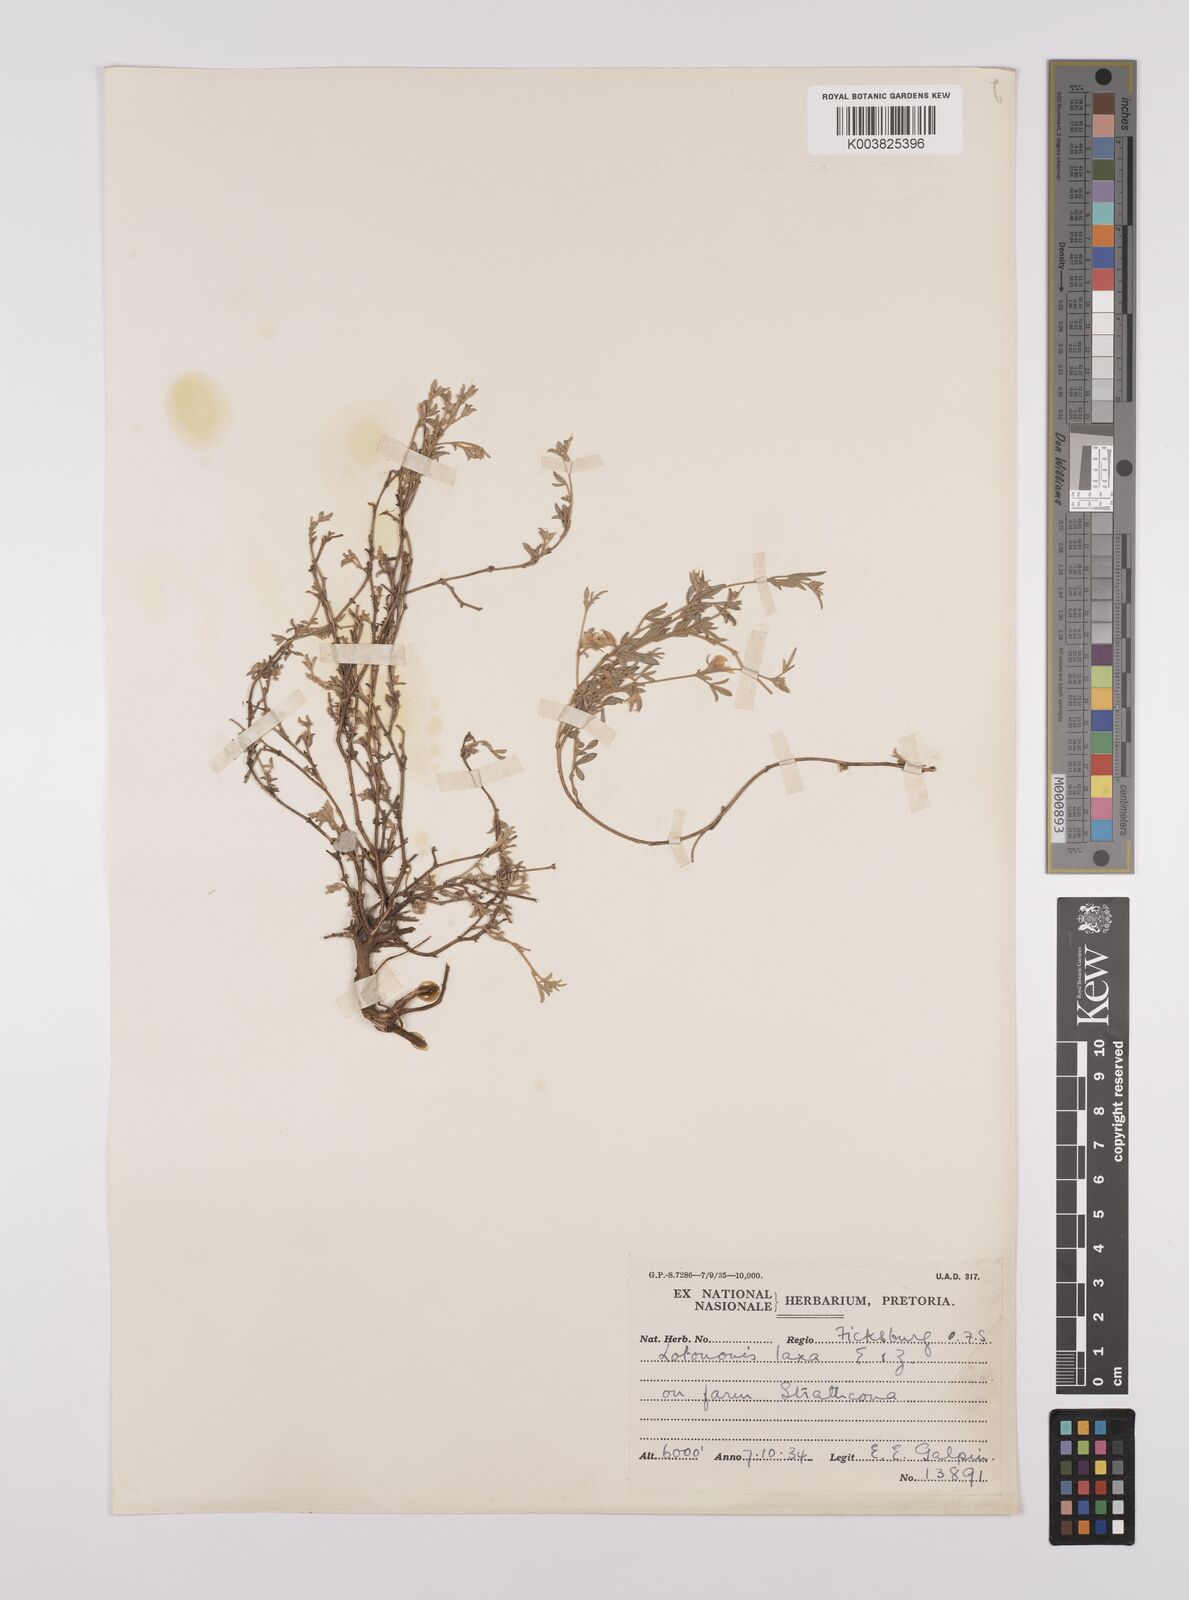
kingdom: Plantae
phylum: Tracheophyta
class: Magnoliopsida
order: Fabales
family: Fabaceae
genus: Lotononis
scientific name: Lotononis laxa
